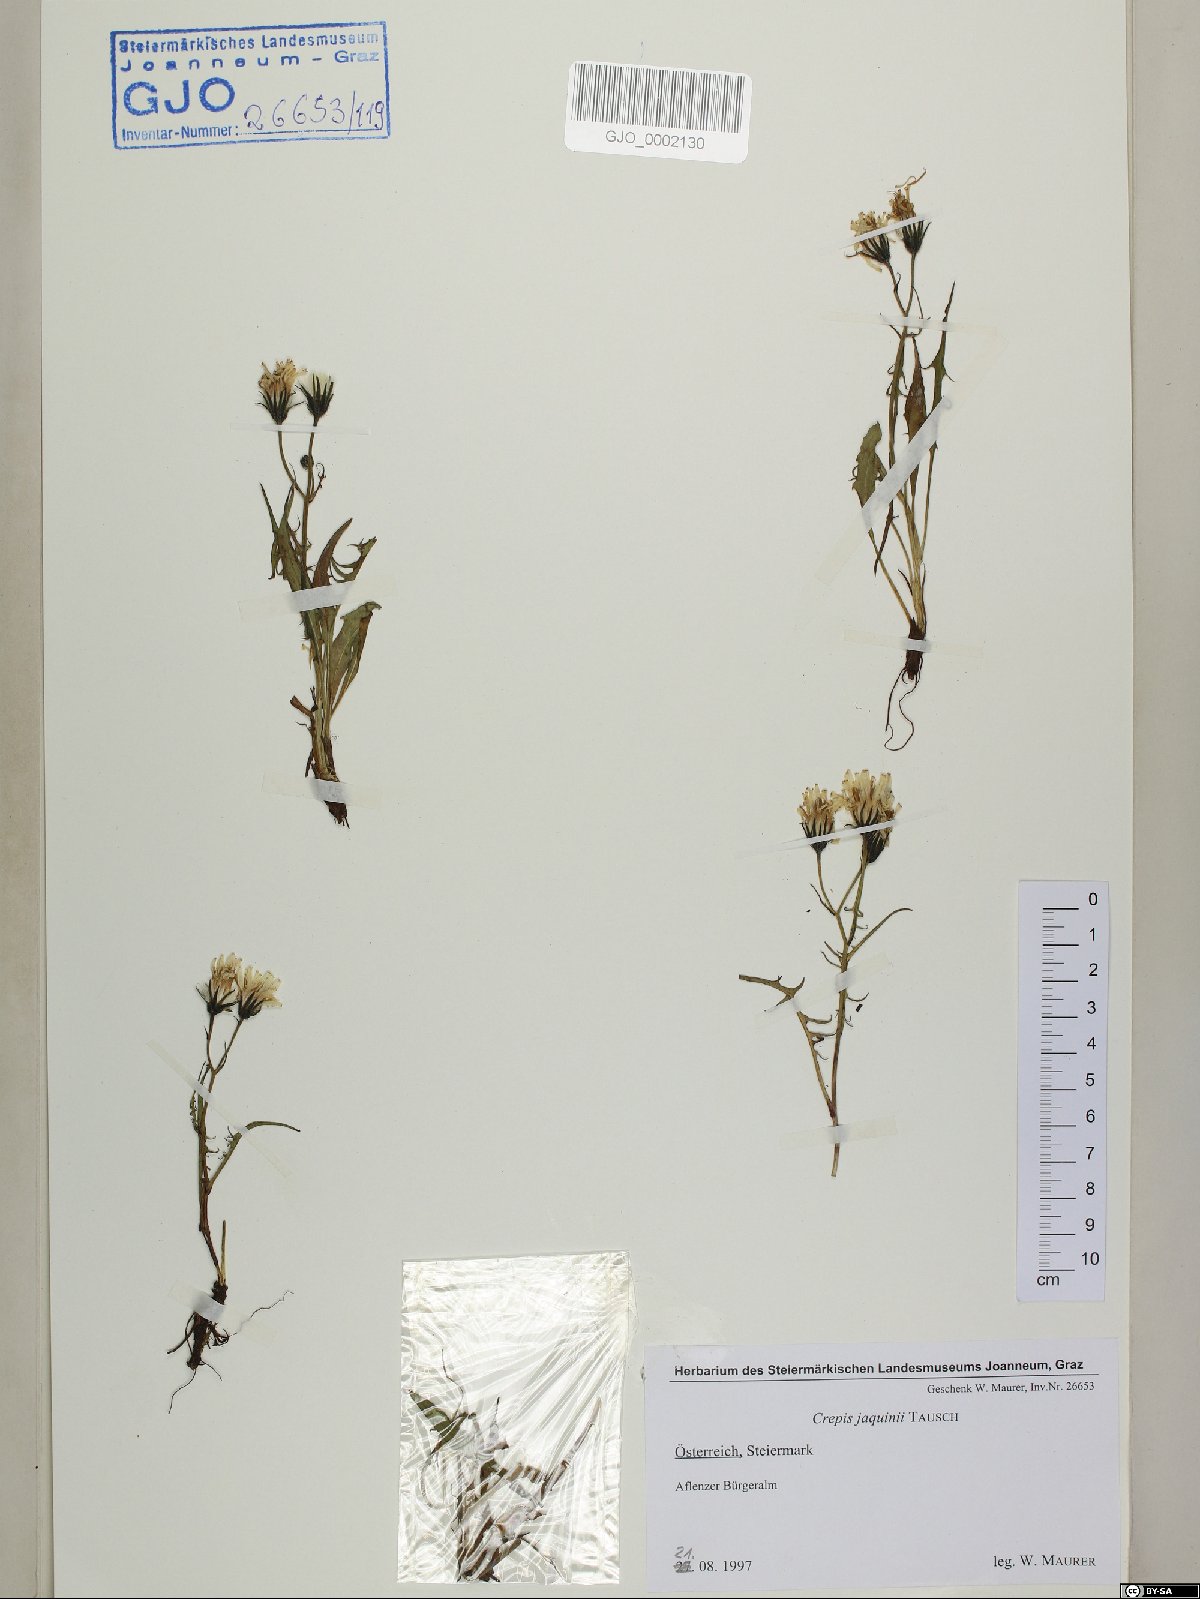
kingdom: Plantae
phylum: Tracheophyta
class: Magnoliopsida
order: Asterales
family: Asteraceae
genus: Crepis
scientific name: Crepis jacquinii
